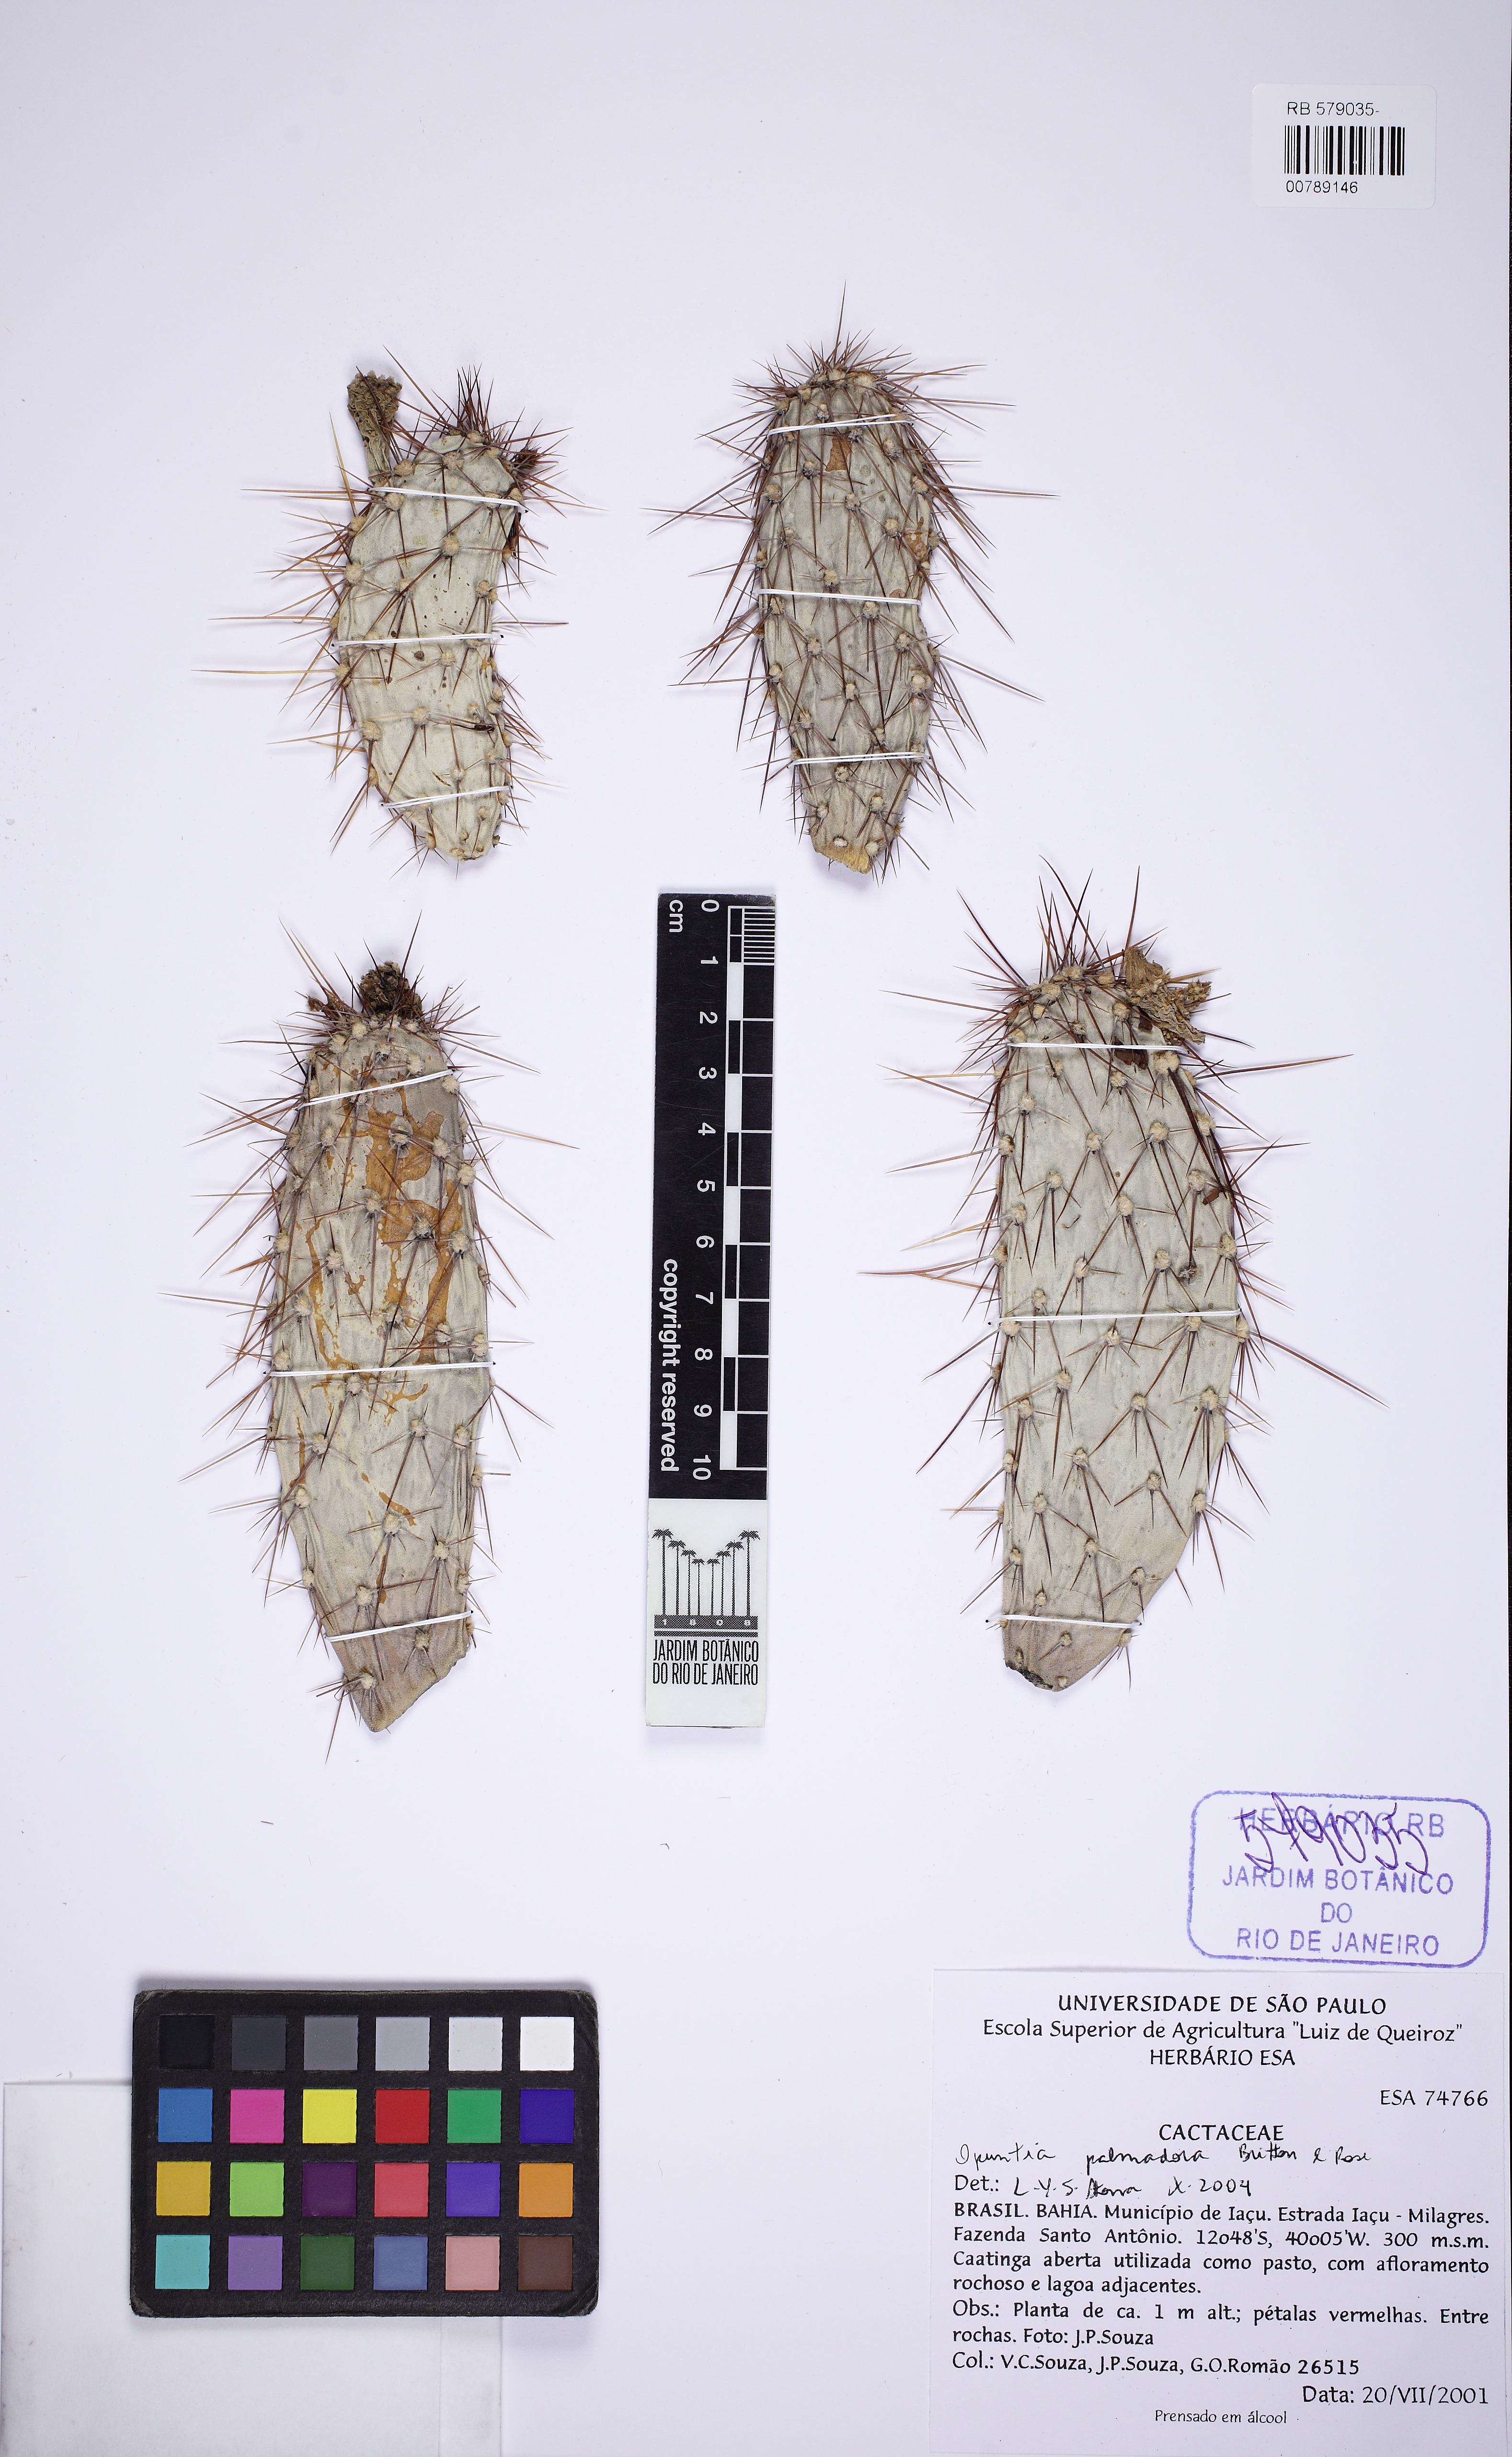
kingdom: Plantae
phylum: Tracheophyta
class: Magnoliopsida
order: Caryophyllales
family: Cactaceae
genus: Tacinga
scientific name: Tacinga palmadora
